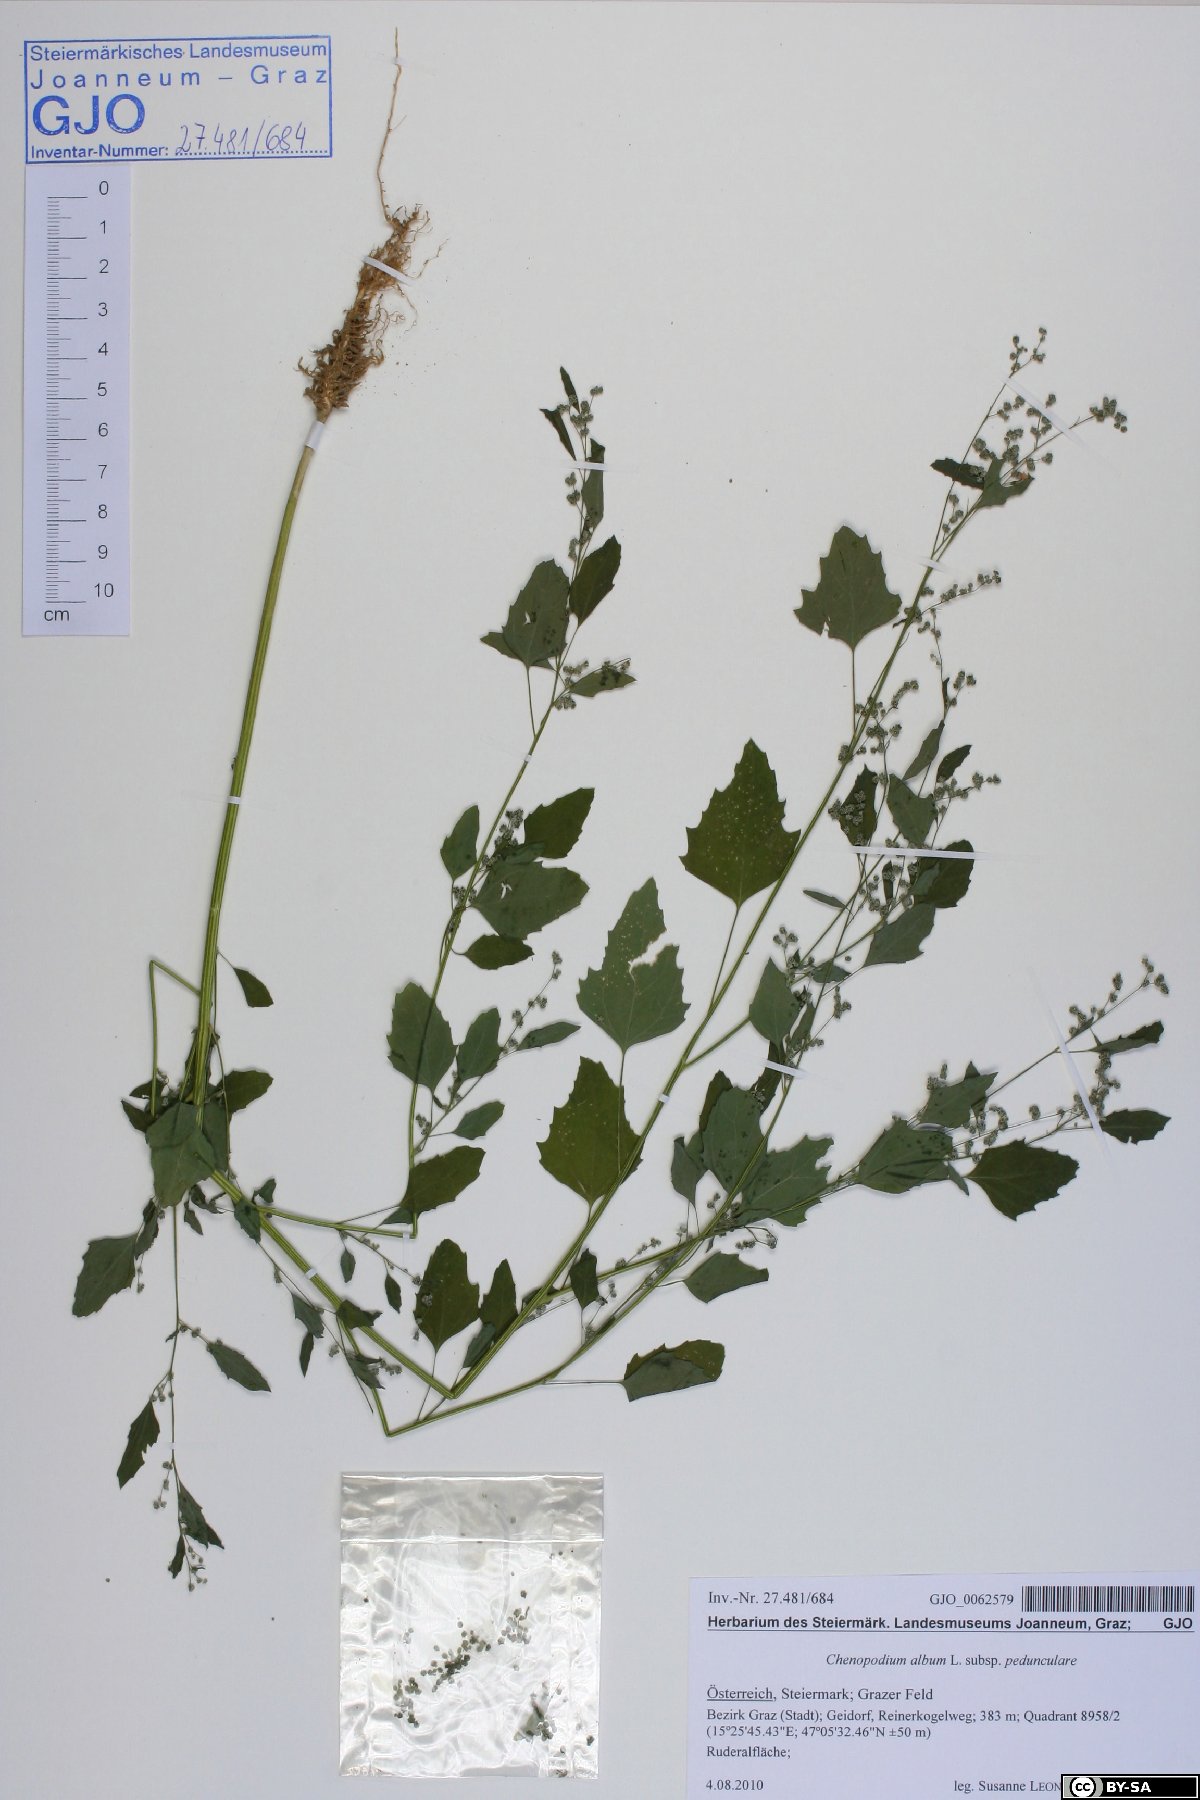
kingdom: Plantae
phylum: Tracheophyta
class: Magnoliopsida
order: Caryophyllales
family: Amaranthaceae
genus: Chenopodium
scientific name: Chenopodium album
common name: Fat-hen
